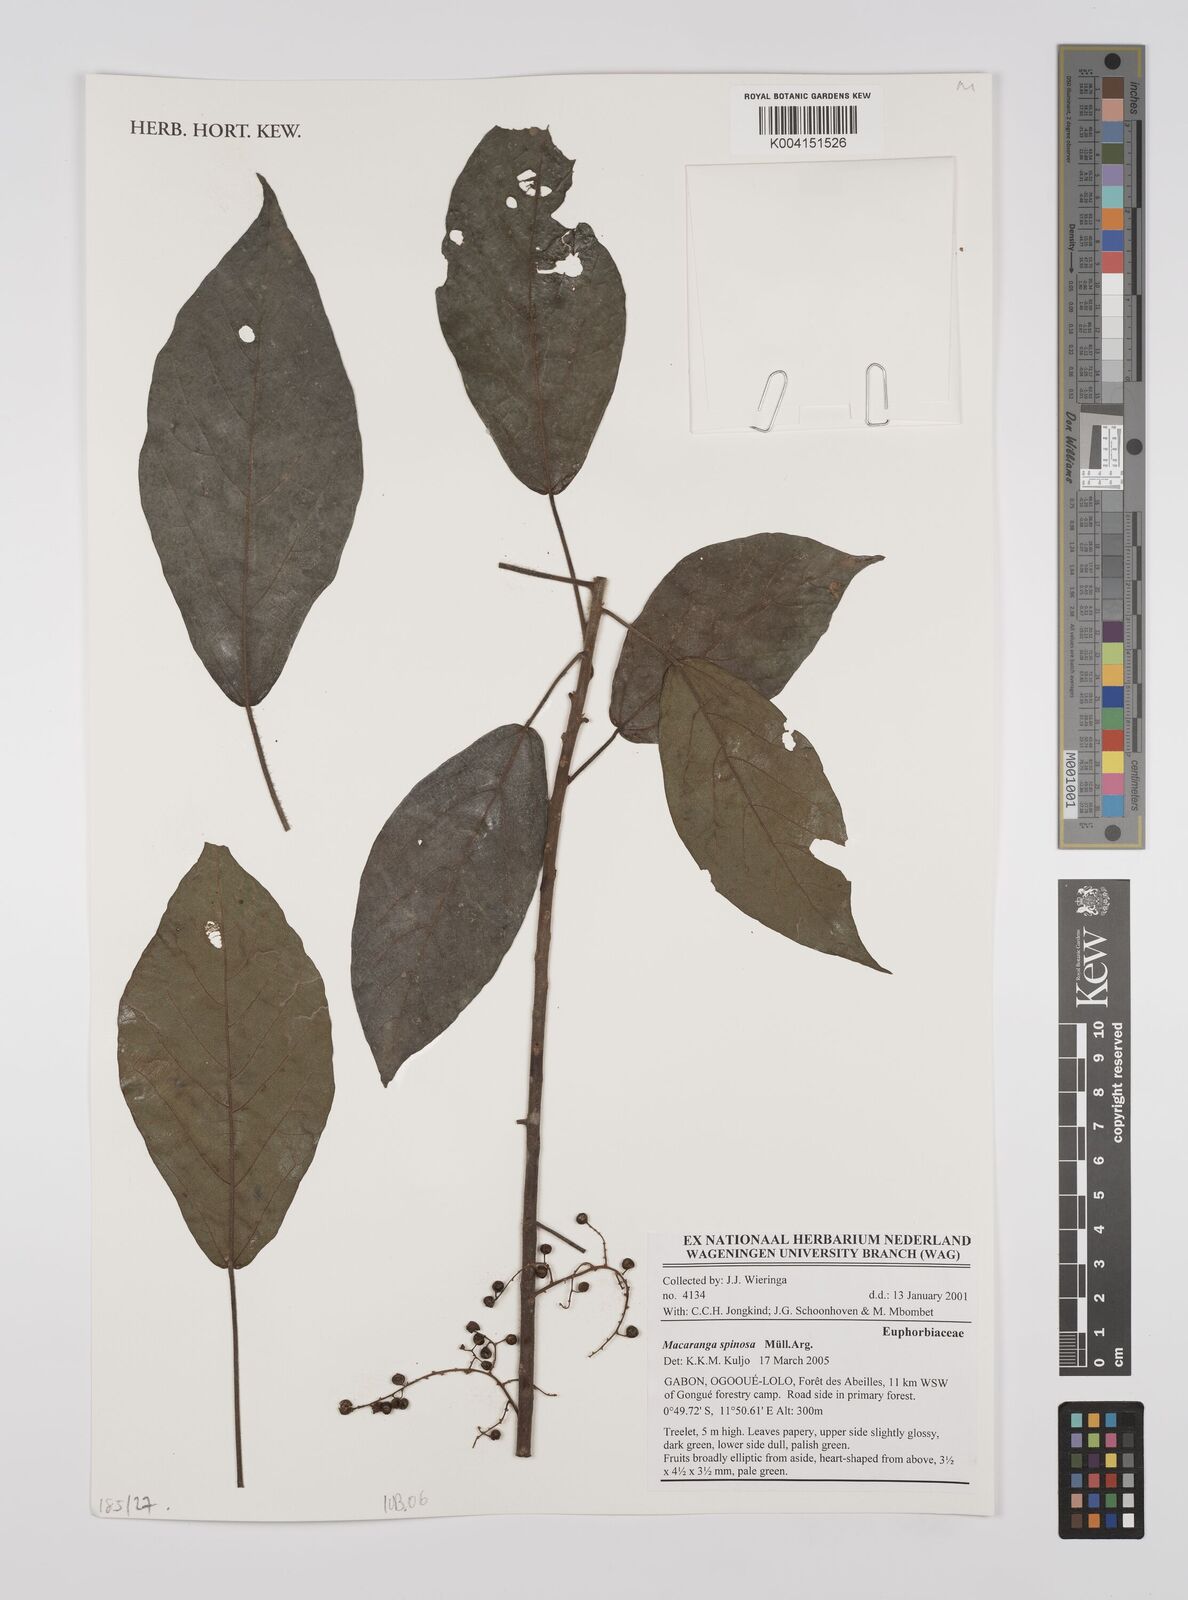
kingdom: Plantae
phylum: Tracheophyta
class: Magnoliopsida
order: Malpighiales
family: Euphorbiaceae
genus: Macaranga
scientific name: Macaranga spinosa
